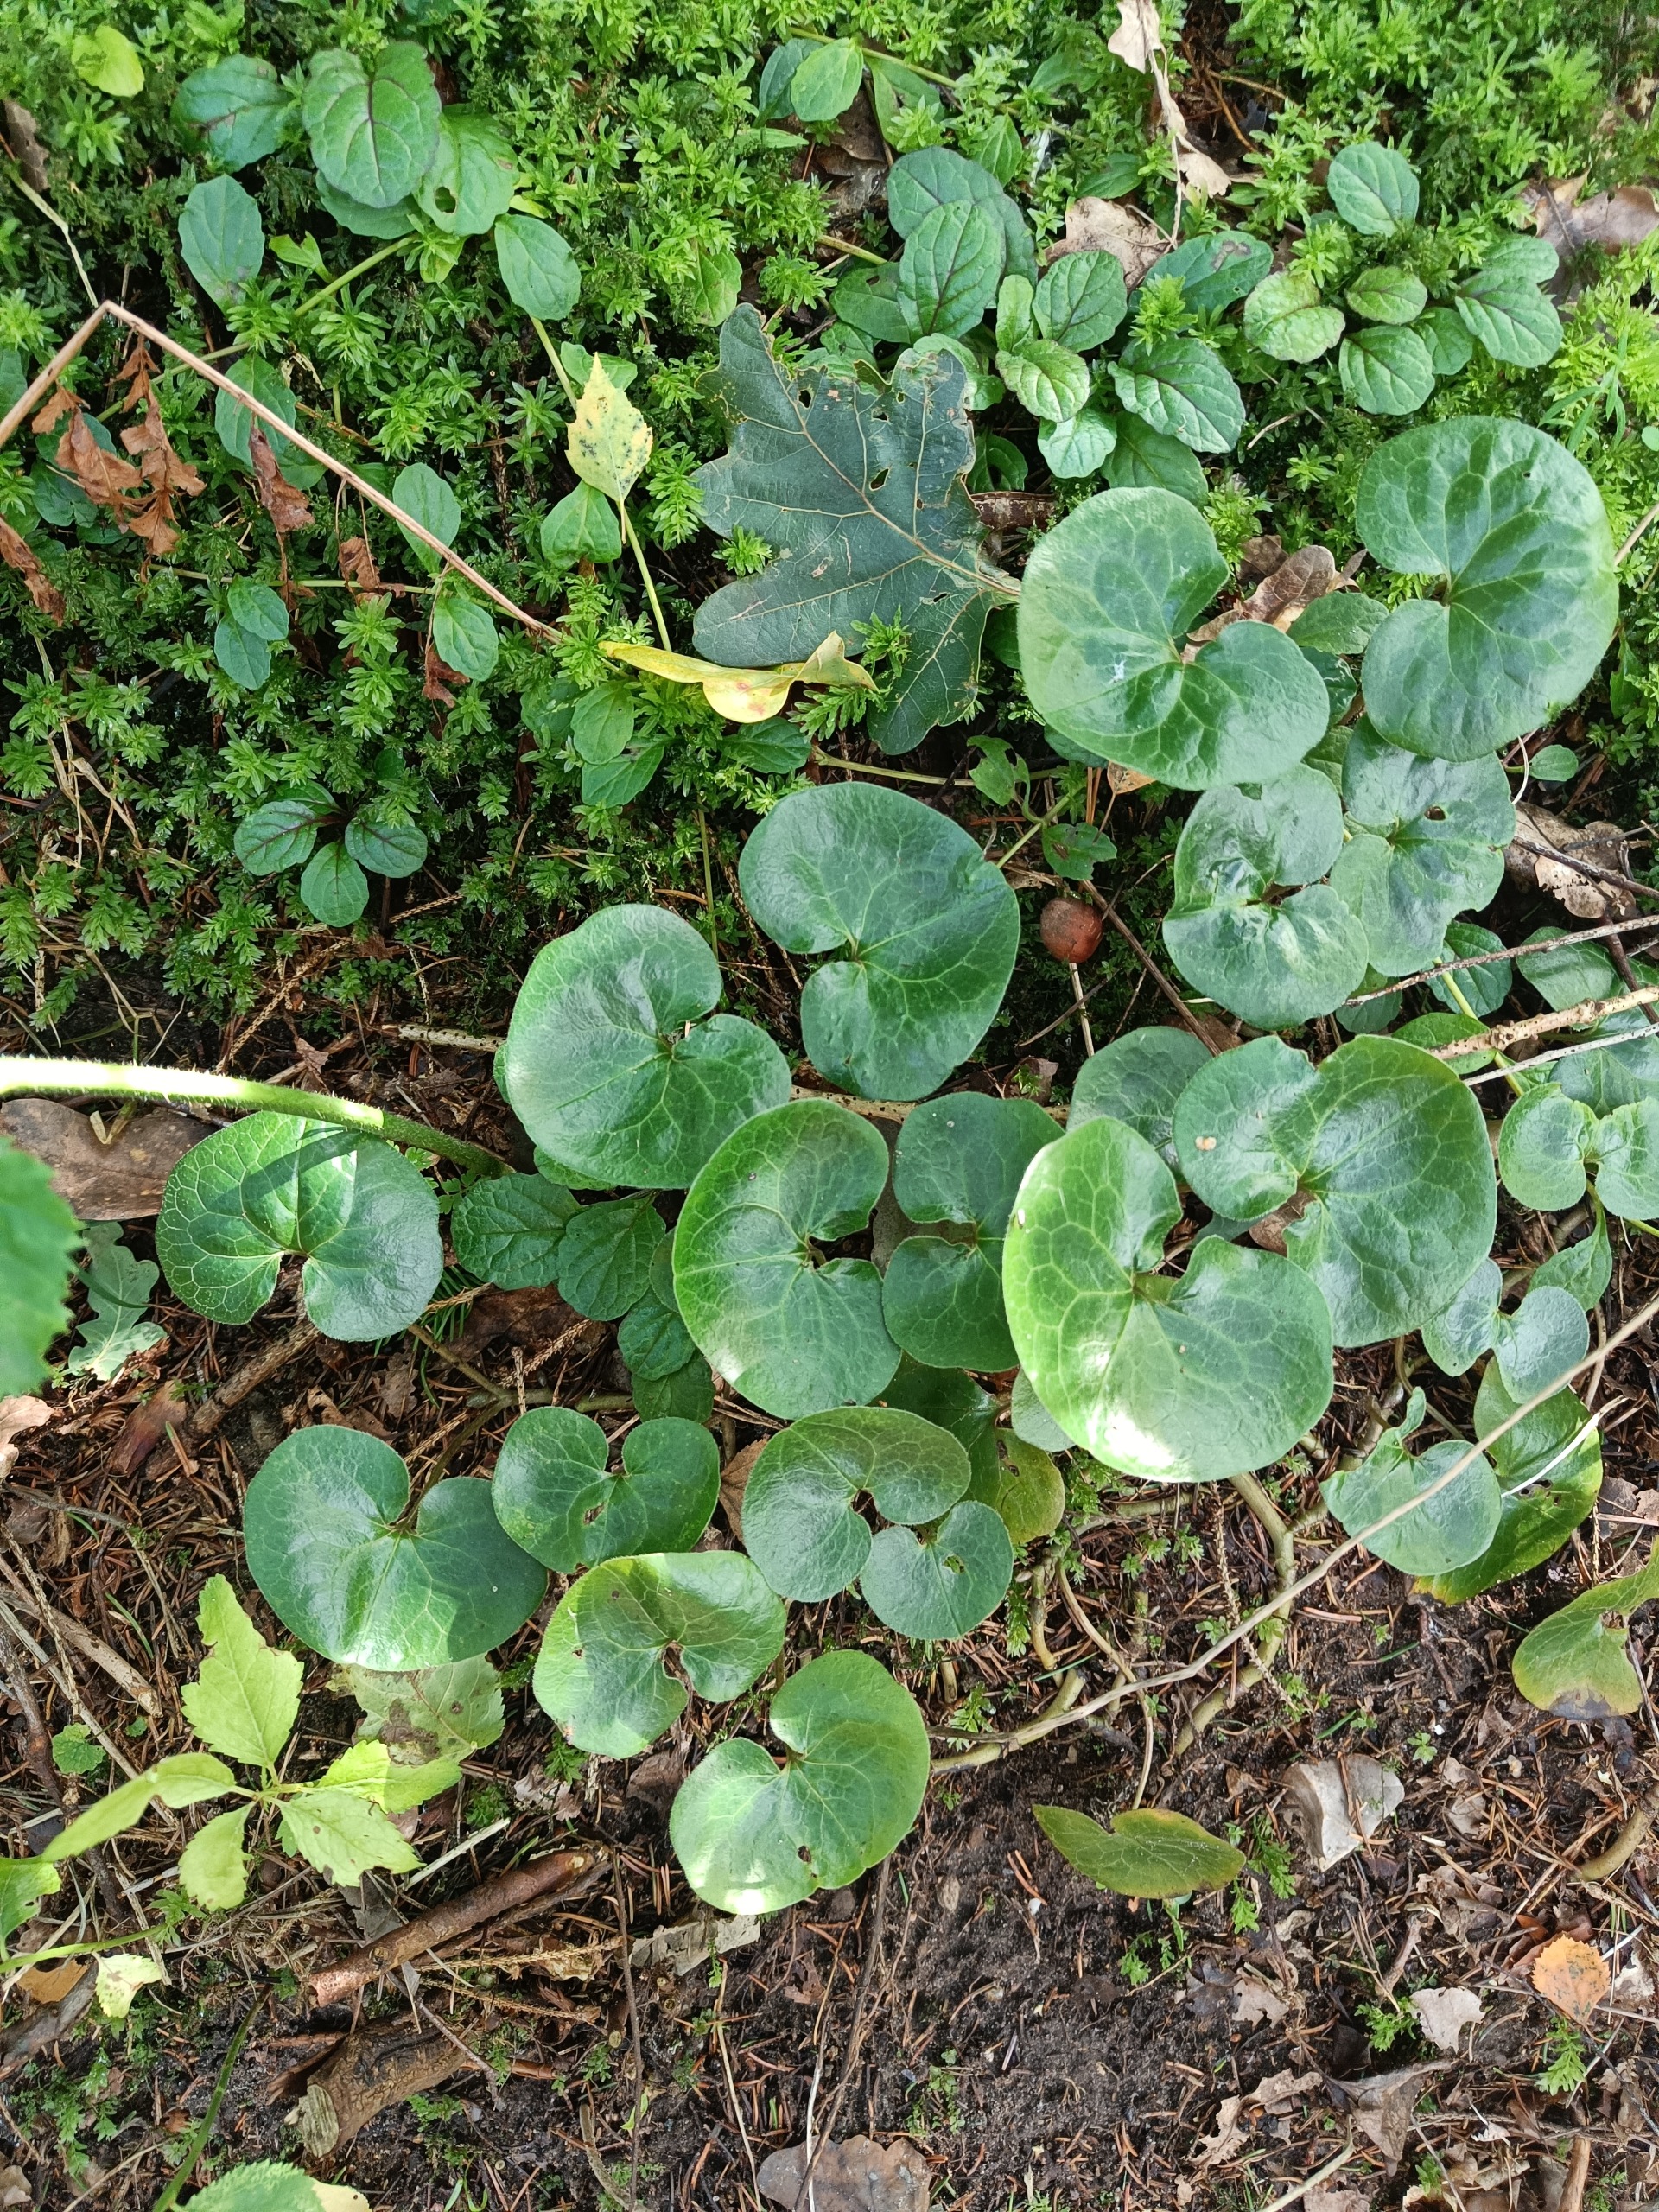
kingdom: Plantae
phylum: Tracheophyta
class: Magnoliopsida
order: Piperales
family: Aristolochiaceae
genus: Asarum
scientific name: Asarum europaeum
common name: Hasselurt
